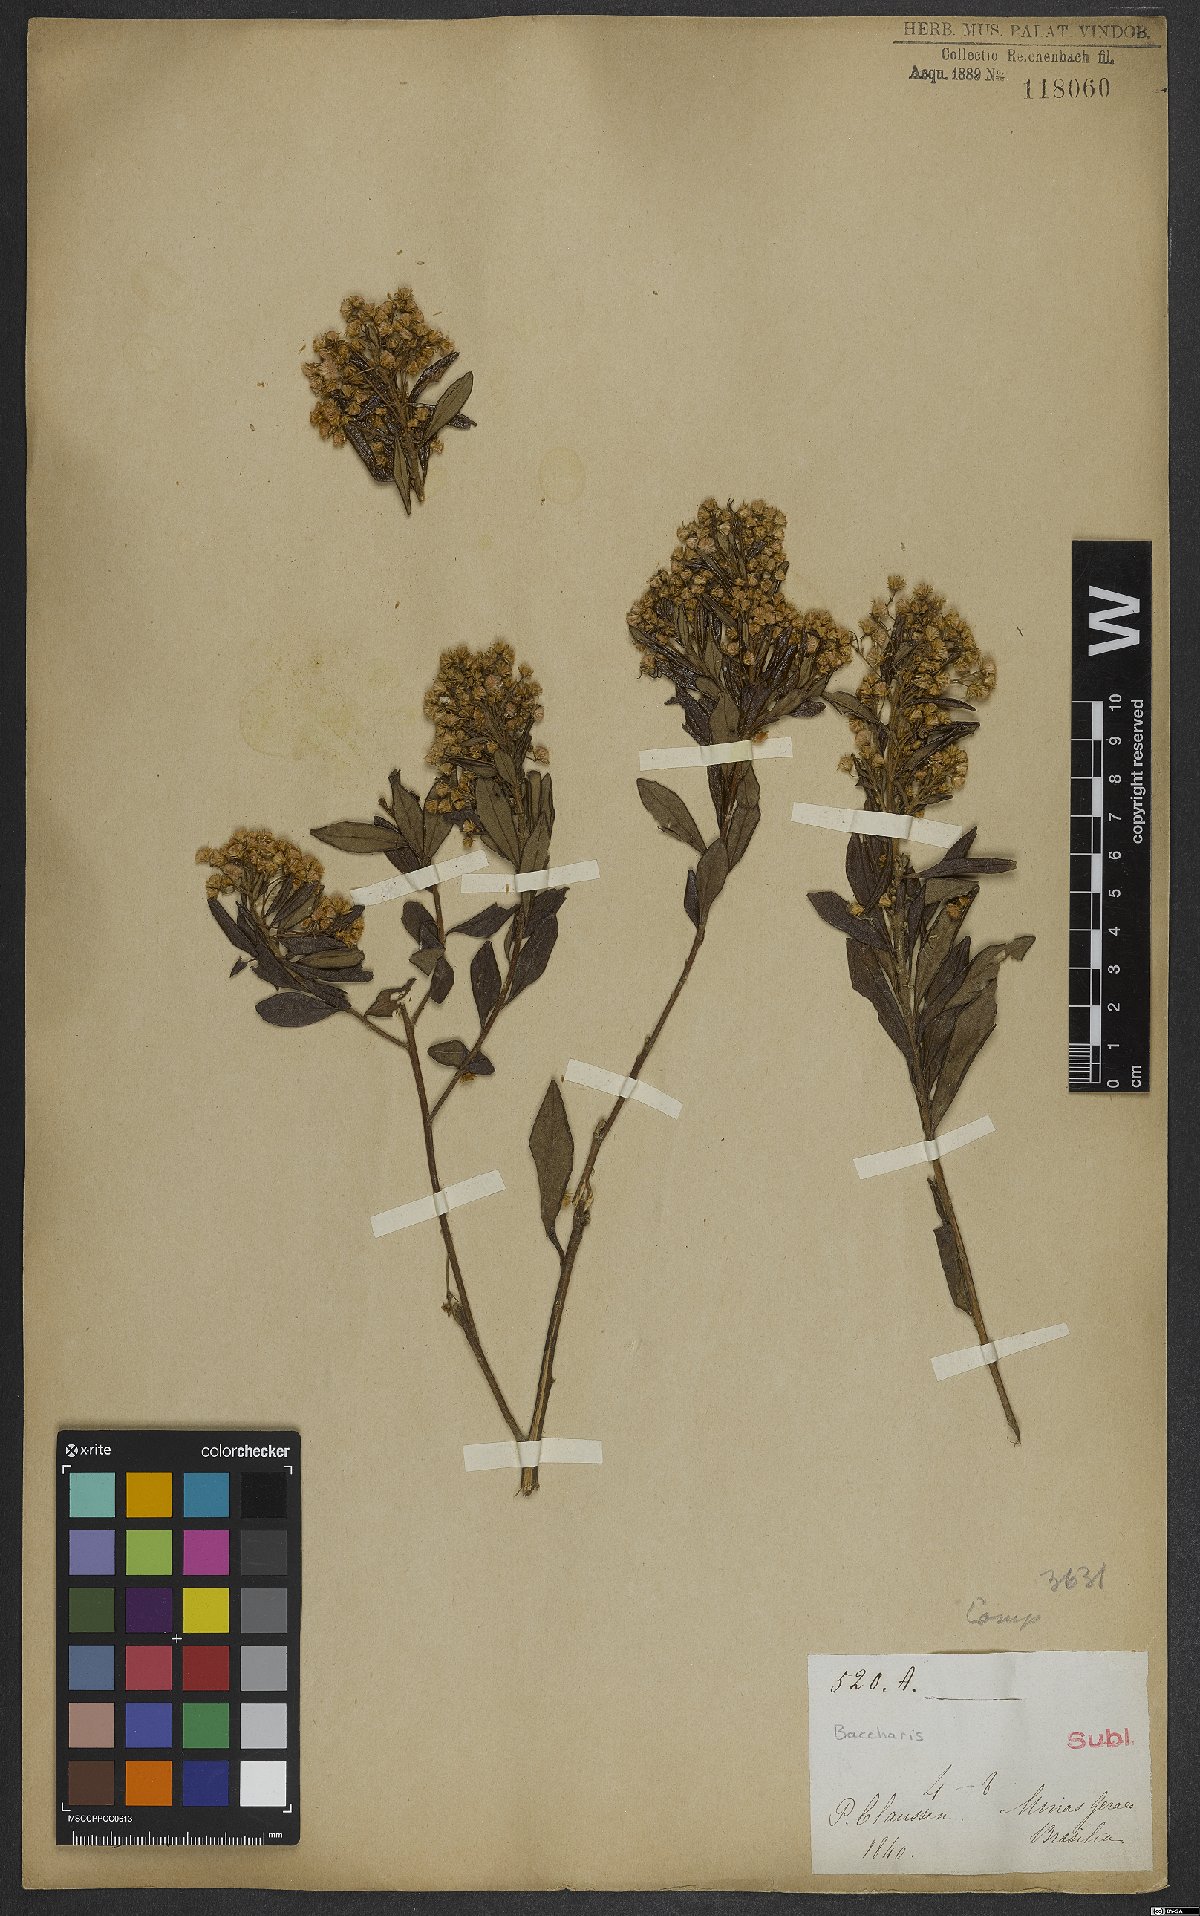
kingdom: Plantae
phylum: Tracheophyta
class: Magnoliopsida
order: Asterales
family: Asteraceae
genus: Baccharis
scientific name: Baccharis
